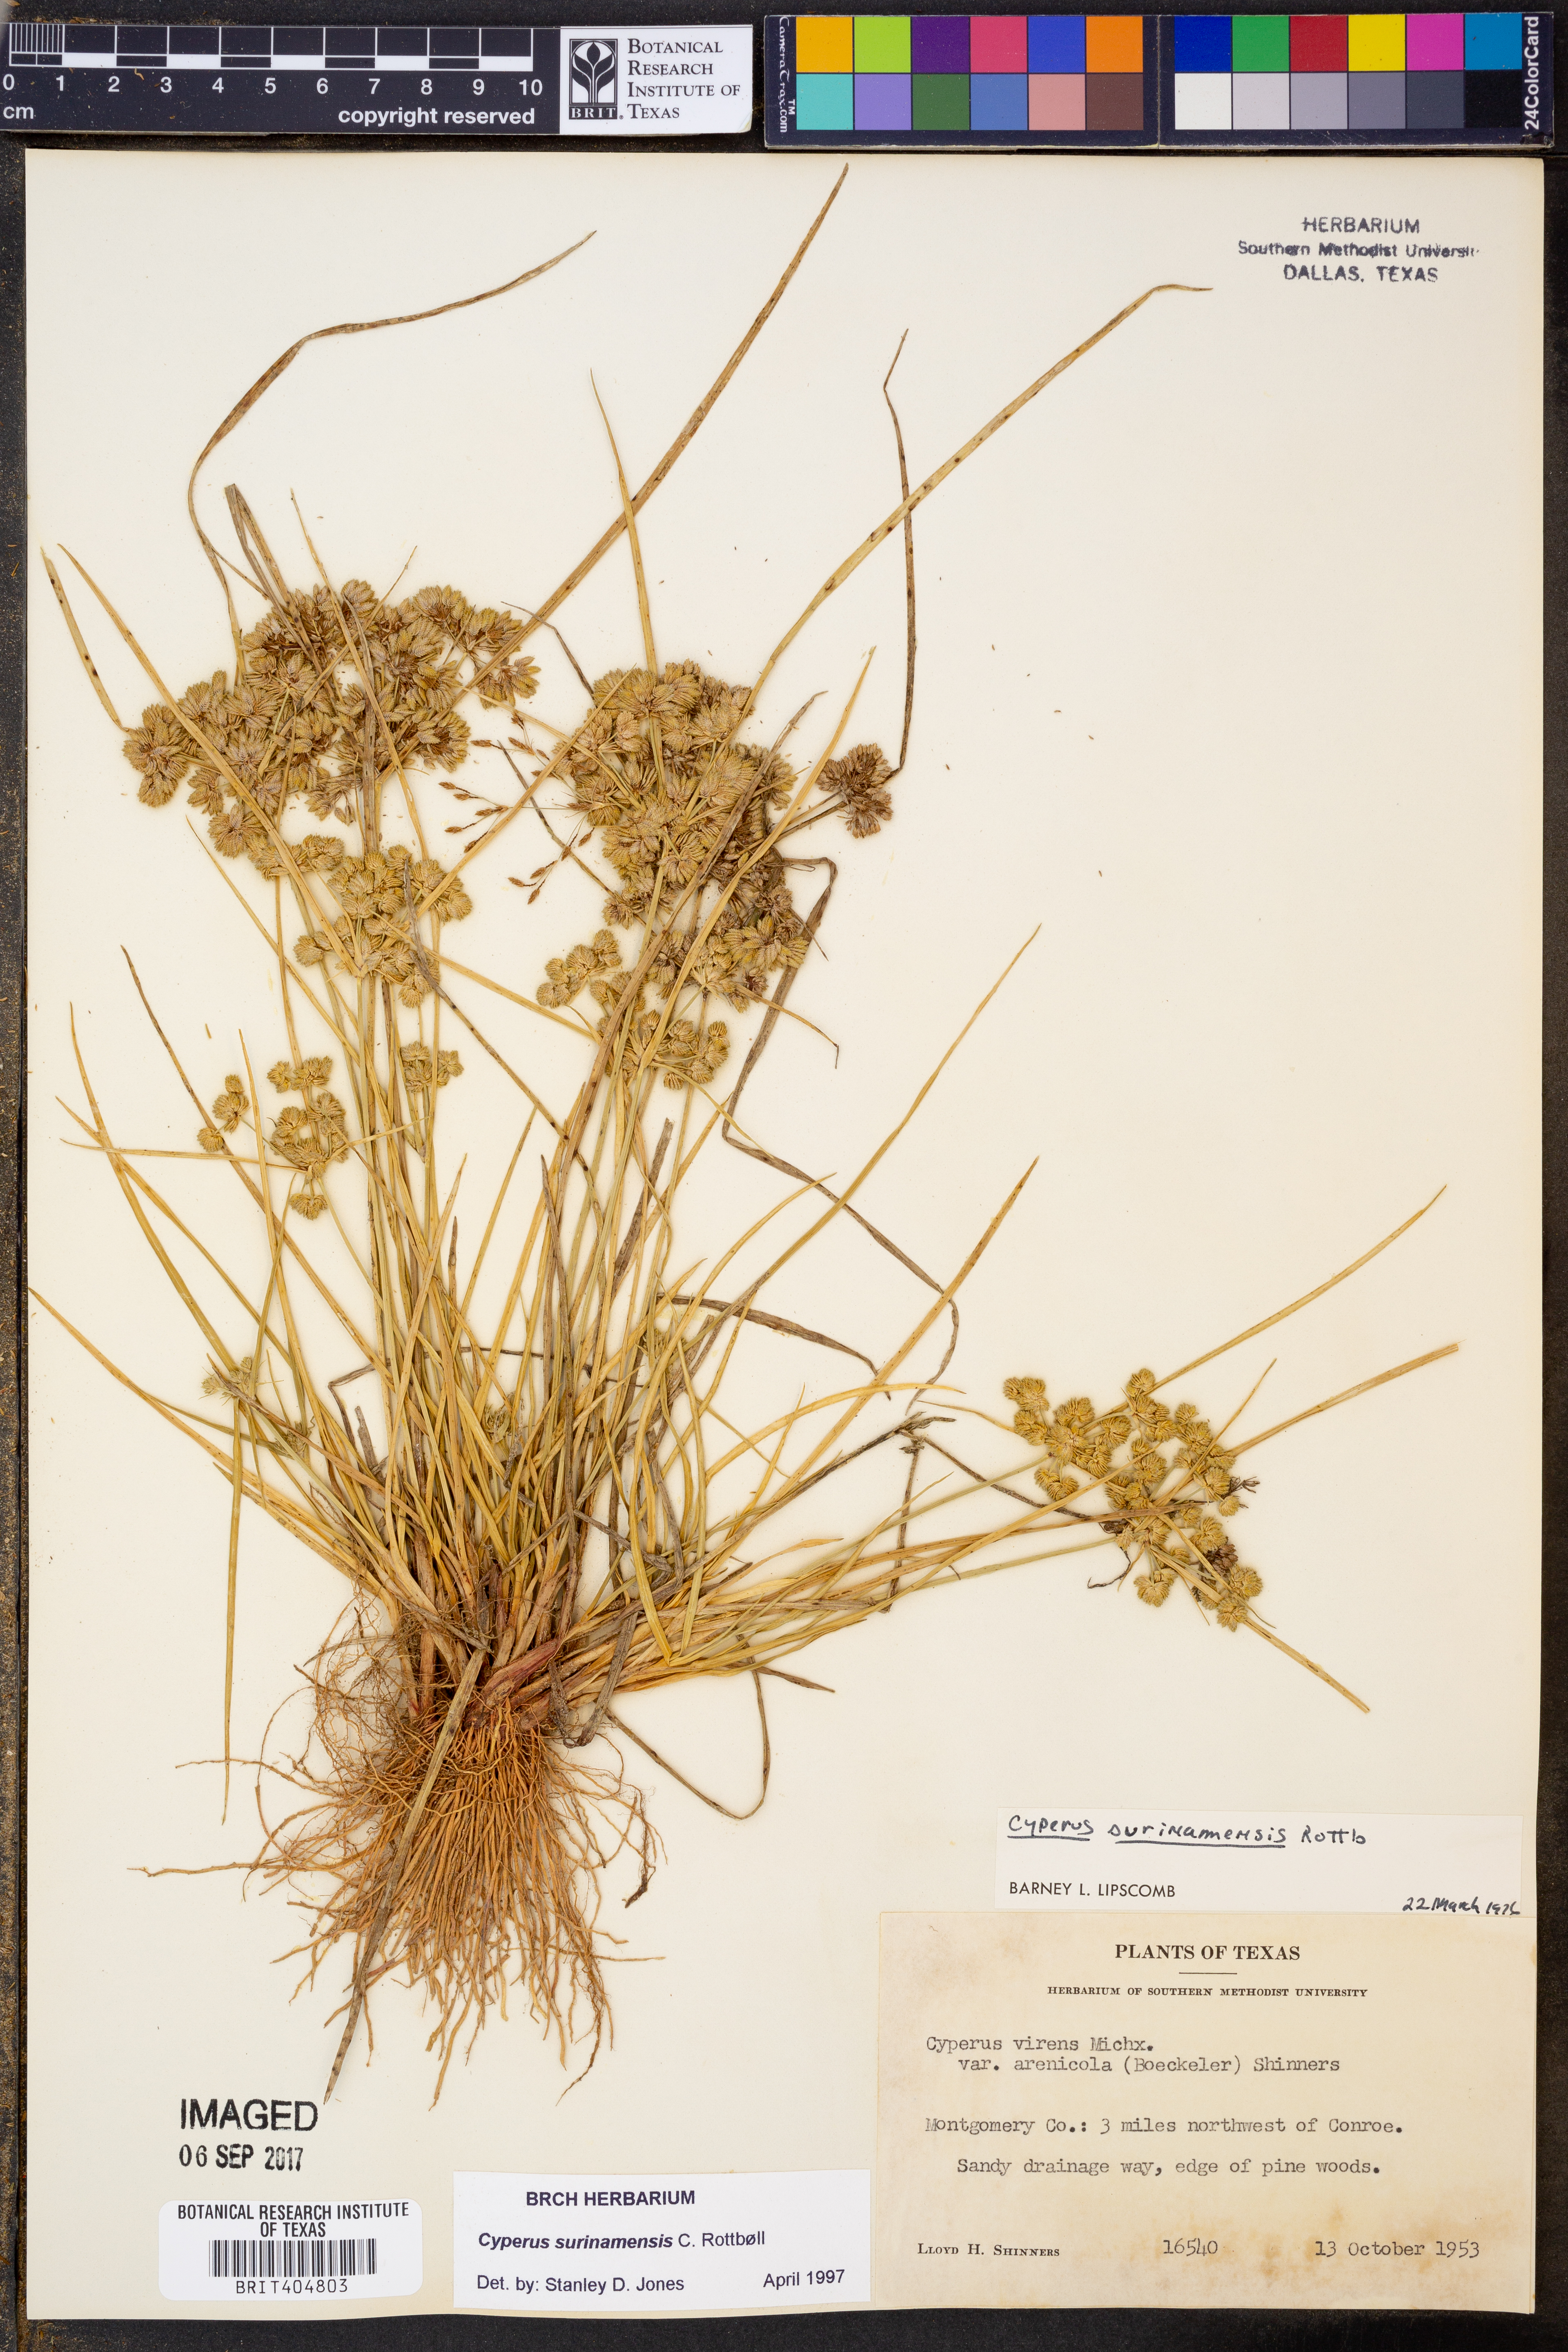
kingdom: Plantae
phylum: Tracheophyta
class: Liliopsida
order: Poales
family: Cyperaceae
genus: Cyperus
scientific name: Cyperus surinamensis
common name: Tropical flat sedge
